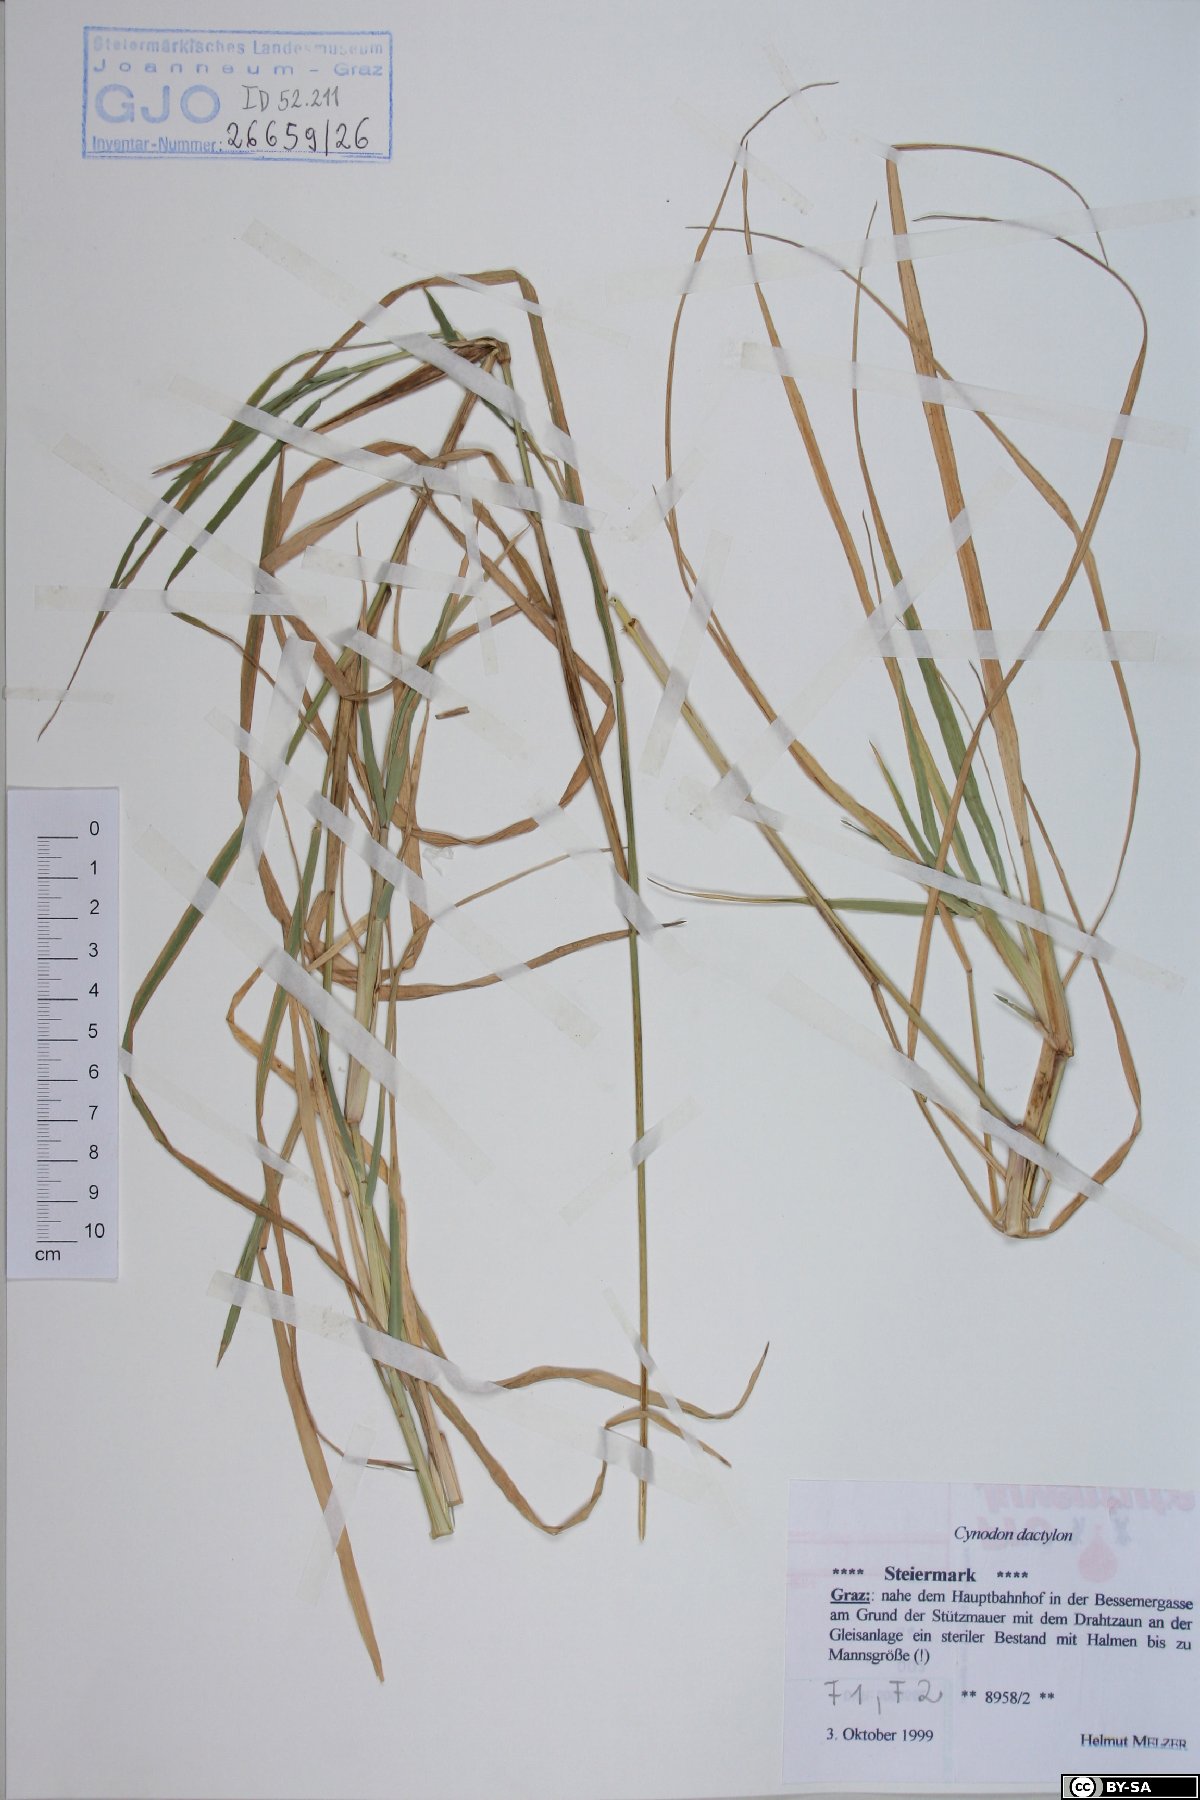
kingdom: Plantae
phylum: Tracheophyta
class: Liliopsida
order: Poales
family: Poaceae
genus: Cynodon
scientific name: Cynodon dactylon
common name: Bermuda grass
